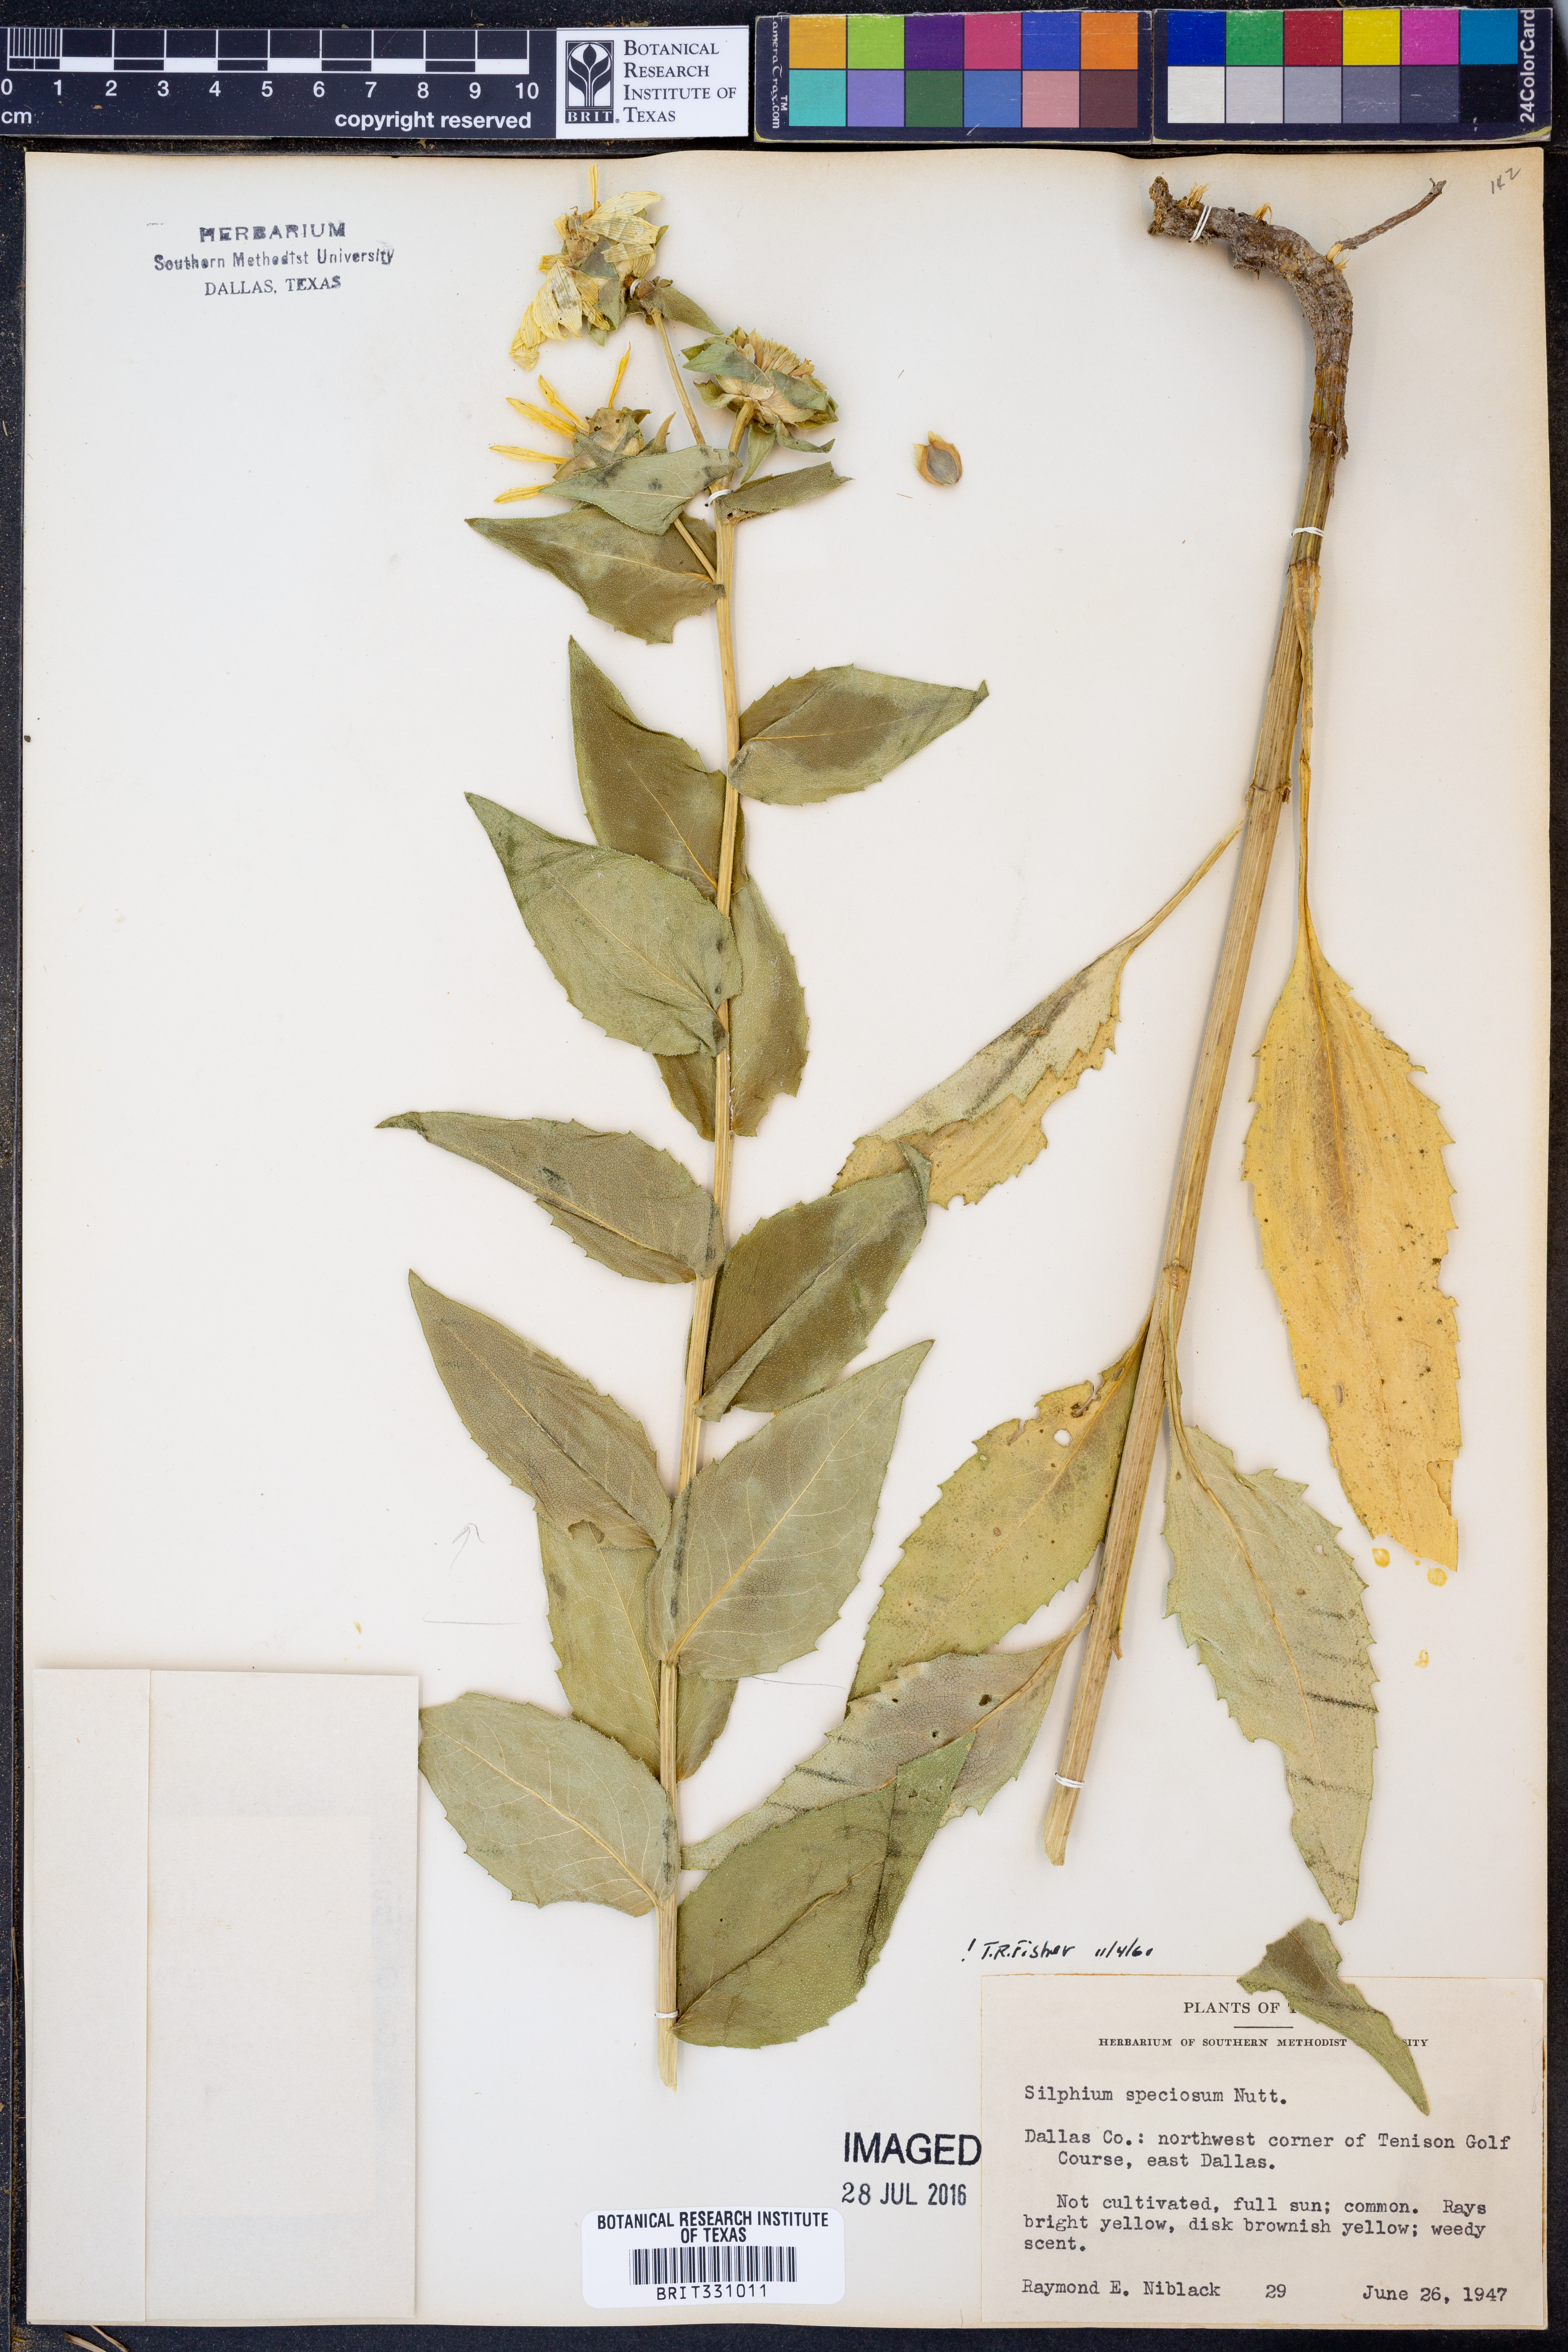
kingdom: Plantae
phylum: Tracheophyta
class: Magnoliopsida
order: Asterales
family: Asteraceae
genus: Silphium
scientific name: Silphium integrifolium
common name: Whole-leaf rosinweed
